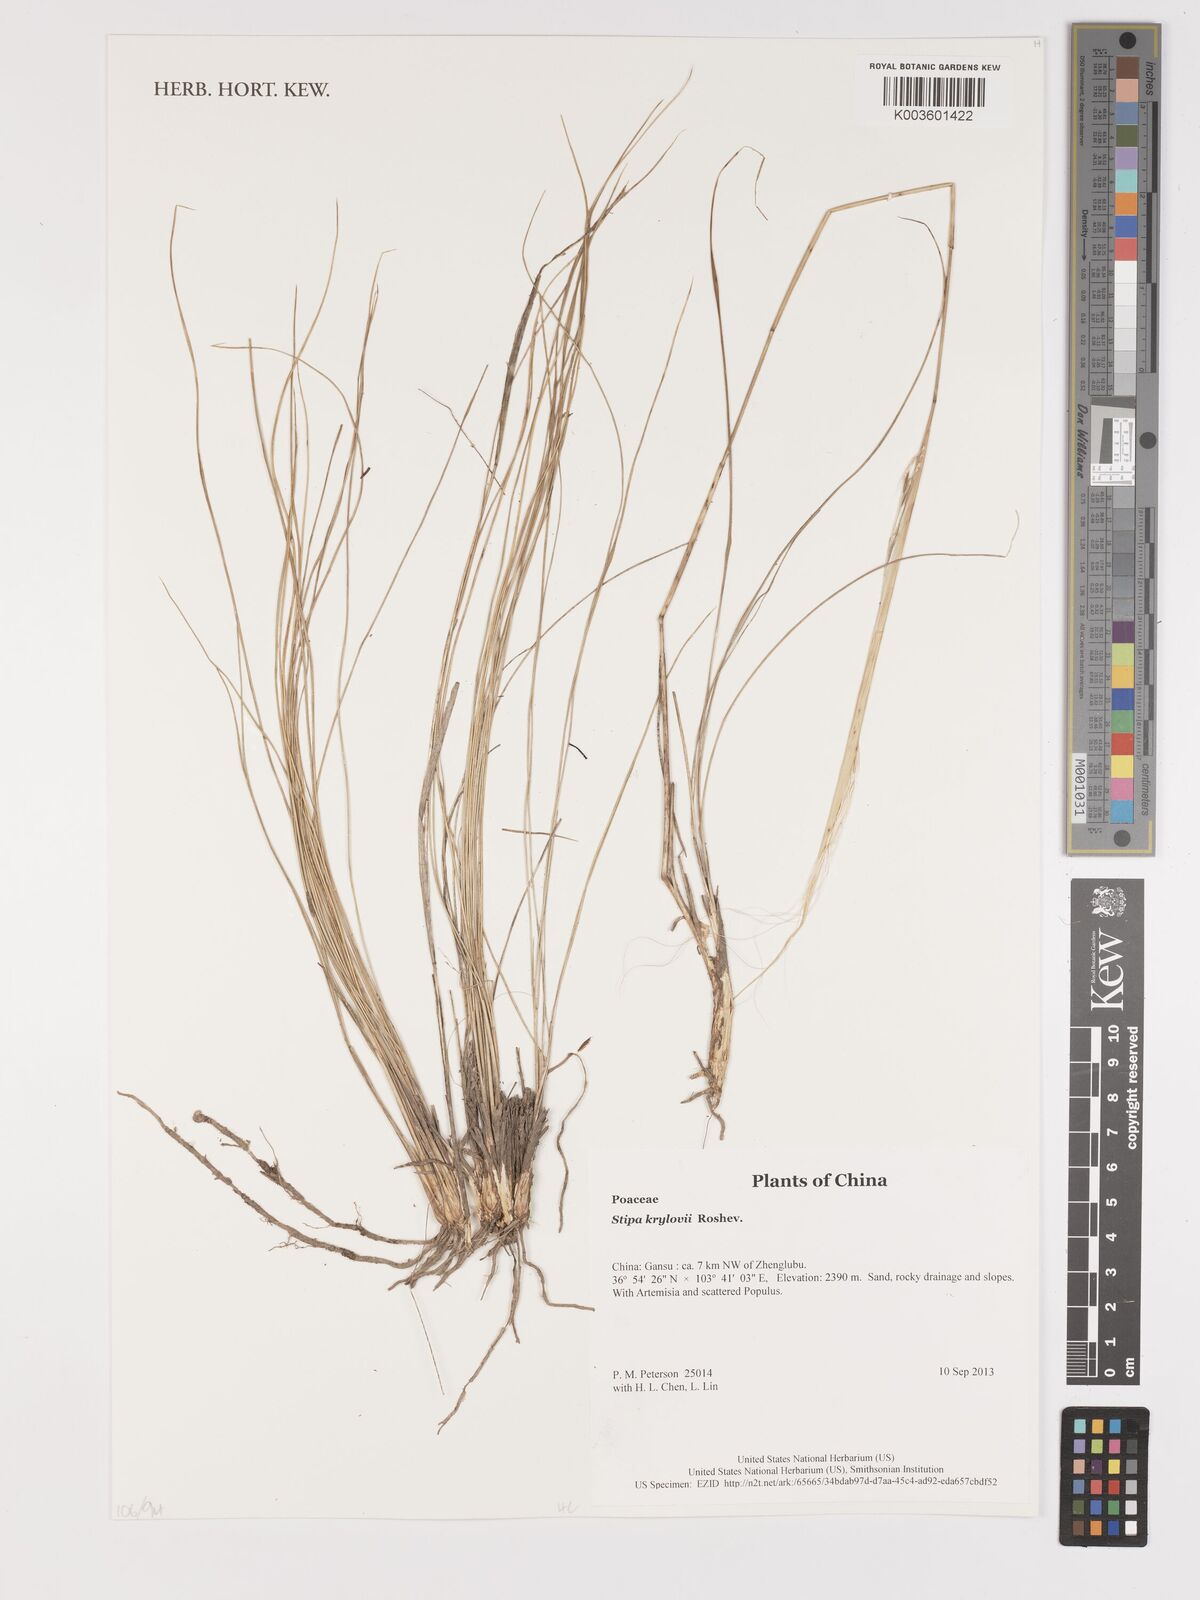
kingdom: Plantae
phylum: Tracheophyta
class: Liliopsida
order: Poales
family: Poaceae
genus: Stipa
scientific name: Stipa krylovii
